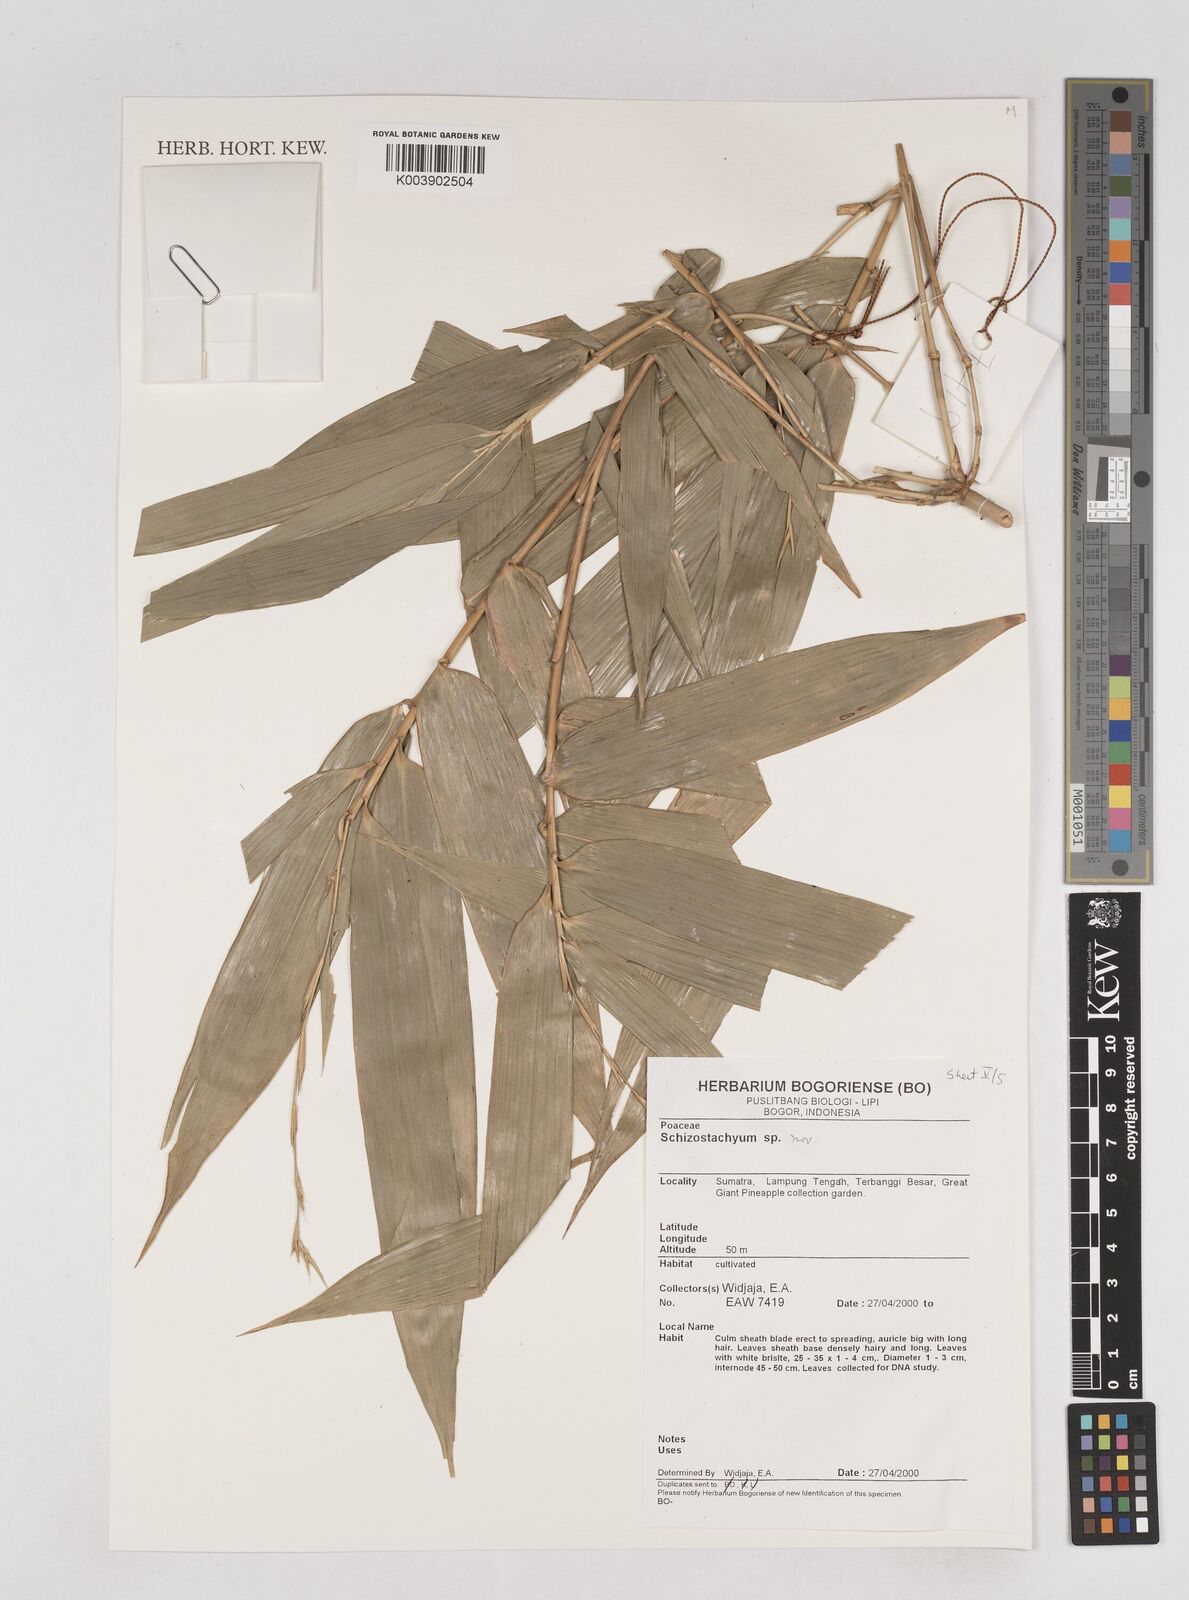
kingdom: Plantae
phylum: Tracheophyta
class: Liliopsida
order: Poales
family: Poaceae
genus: Schizostachyum
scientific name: Schizostachyum
